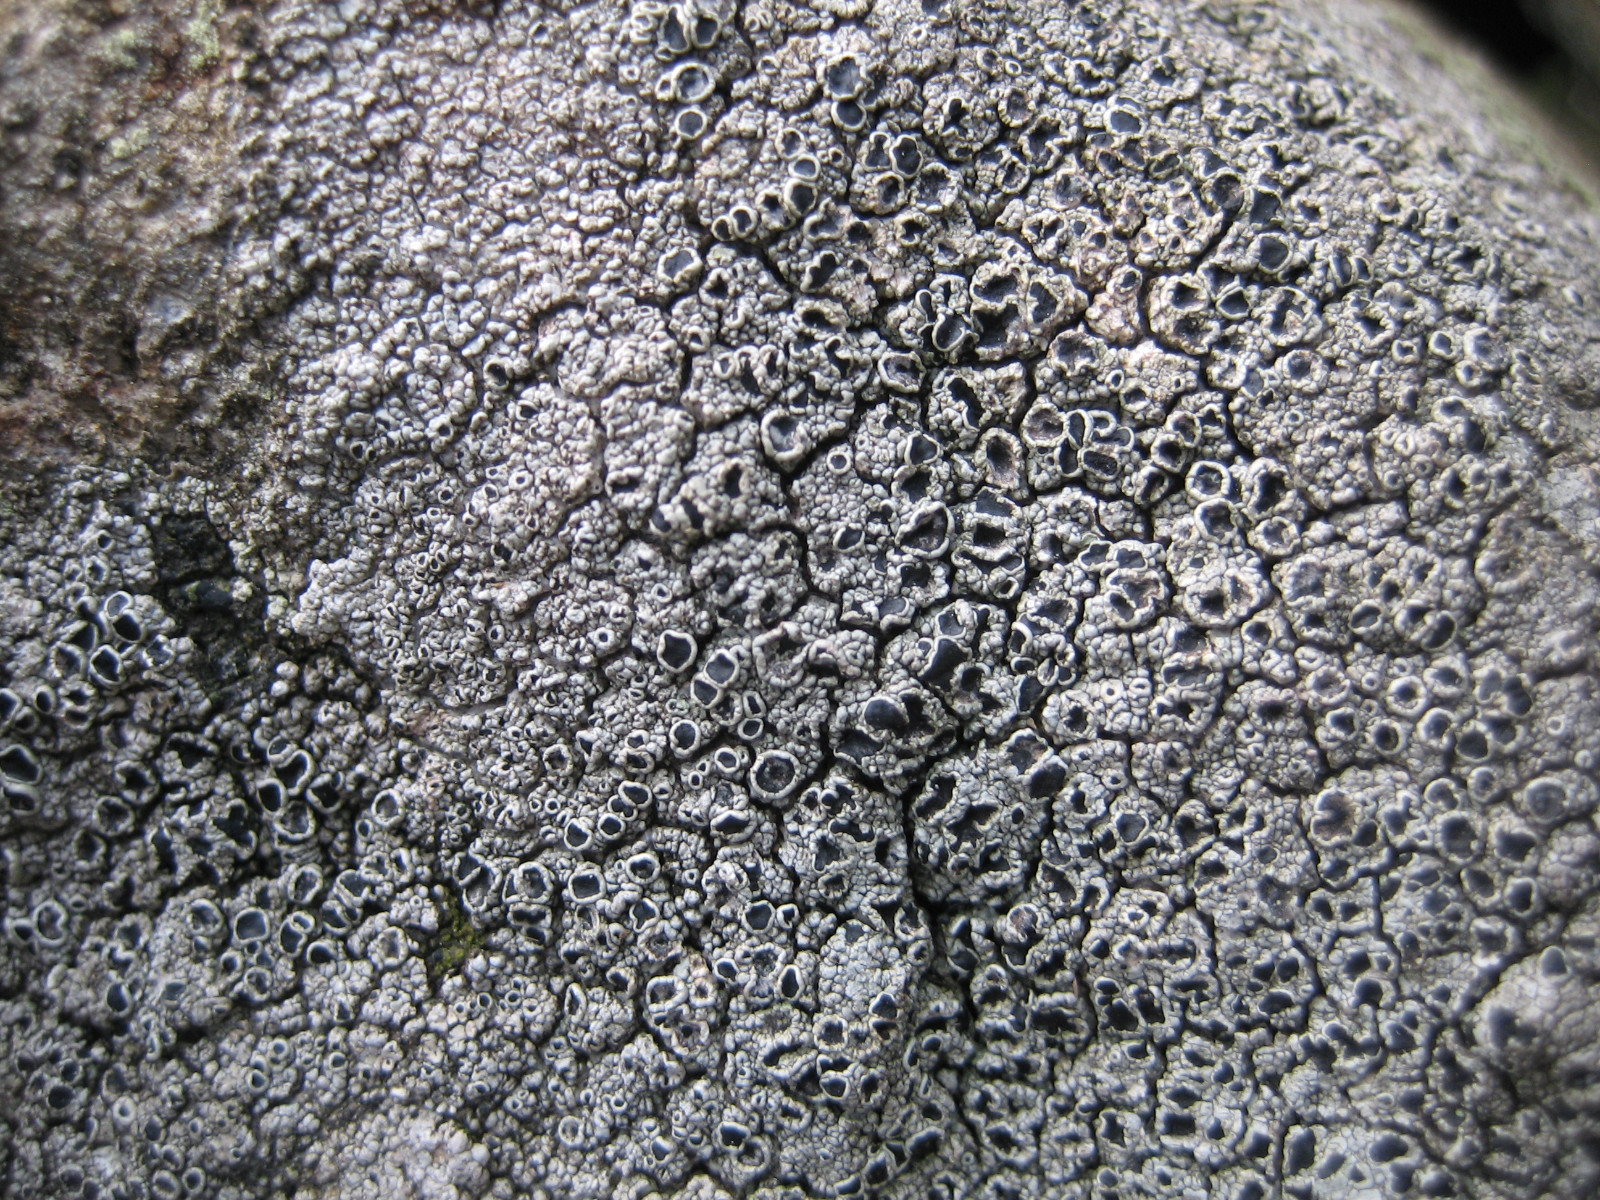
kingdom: Fungi
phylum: Ascomycota
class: Lecanoromycetes
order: Lecanorales
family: Tephromelataceae
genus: Tephromela
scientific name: Tephromela atra
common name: sortfrugtet kantskivelav
